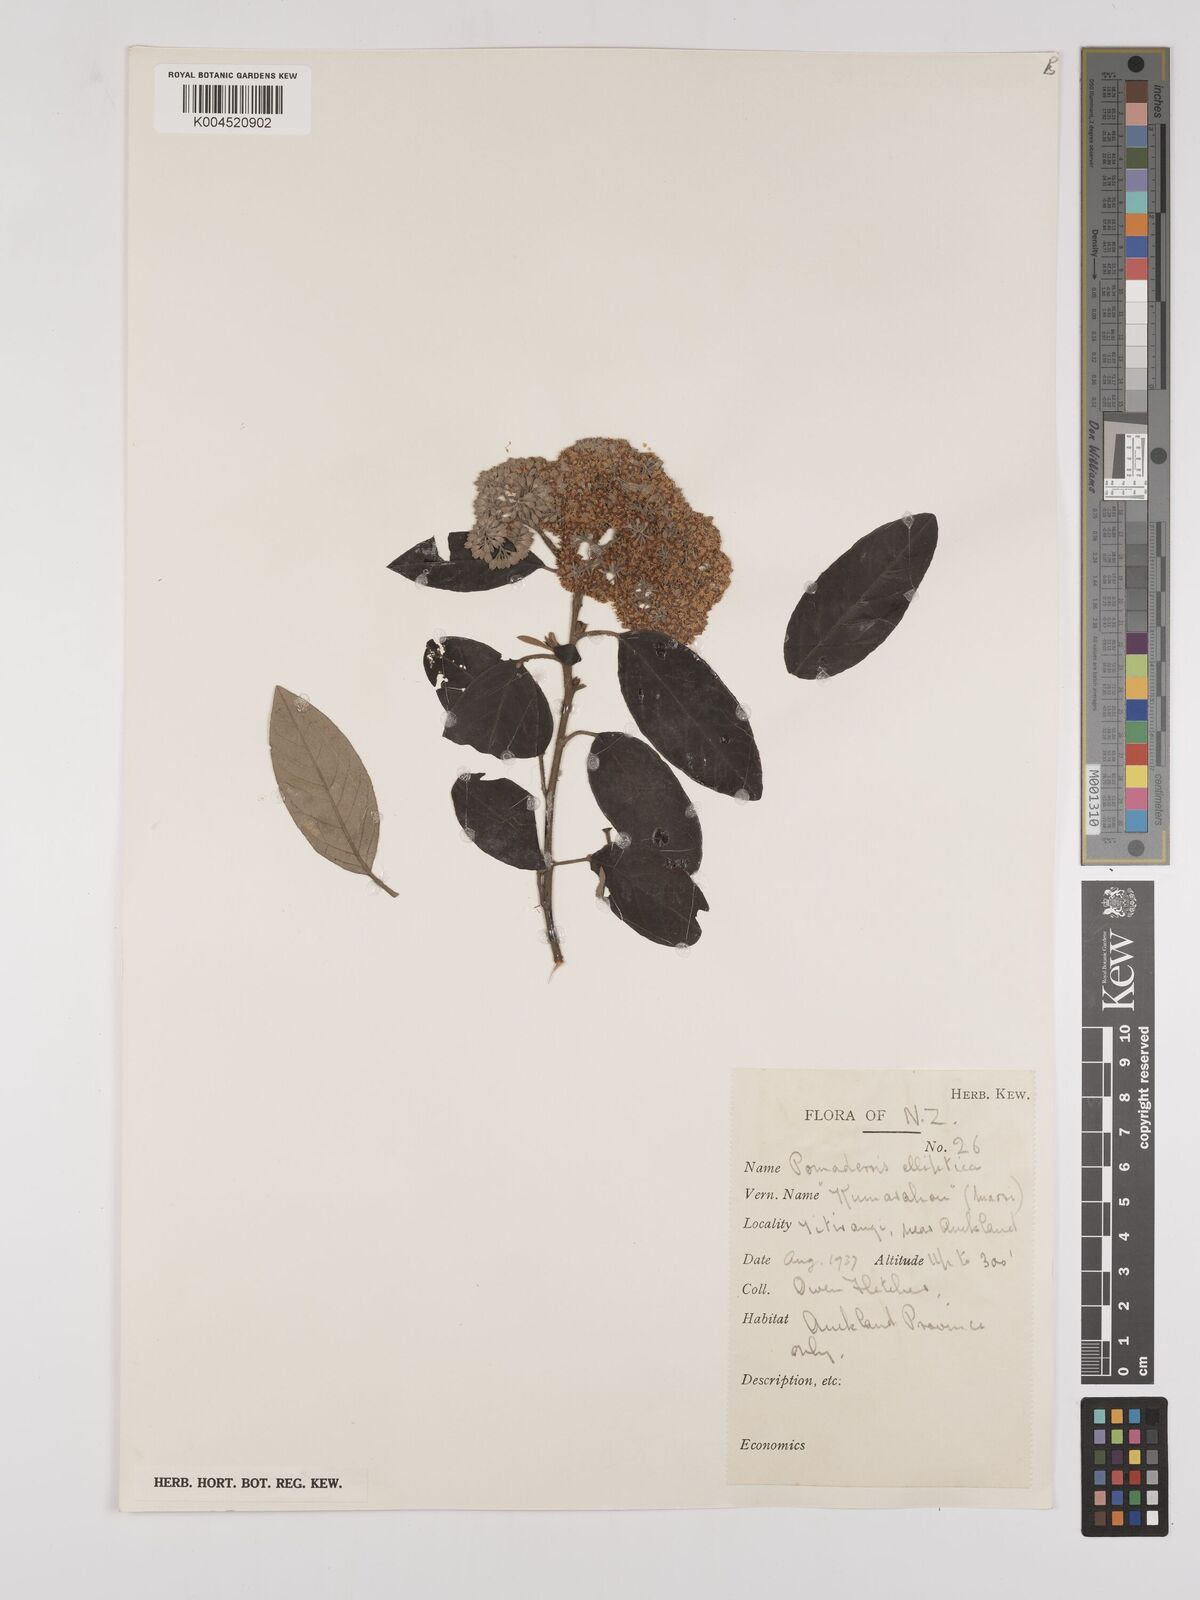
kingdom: Plantae
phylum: Tracheophyta
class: Magnoliopsida
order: Rosales
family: Rhamnaceae
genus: Pomaderris
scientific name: Pomaderris kumeraho
